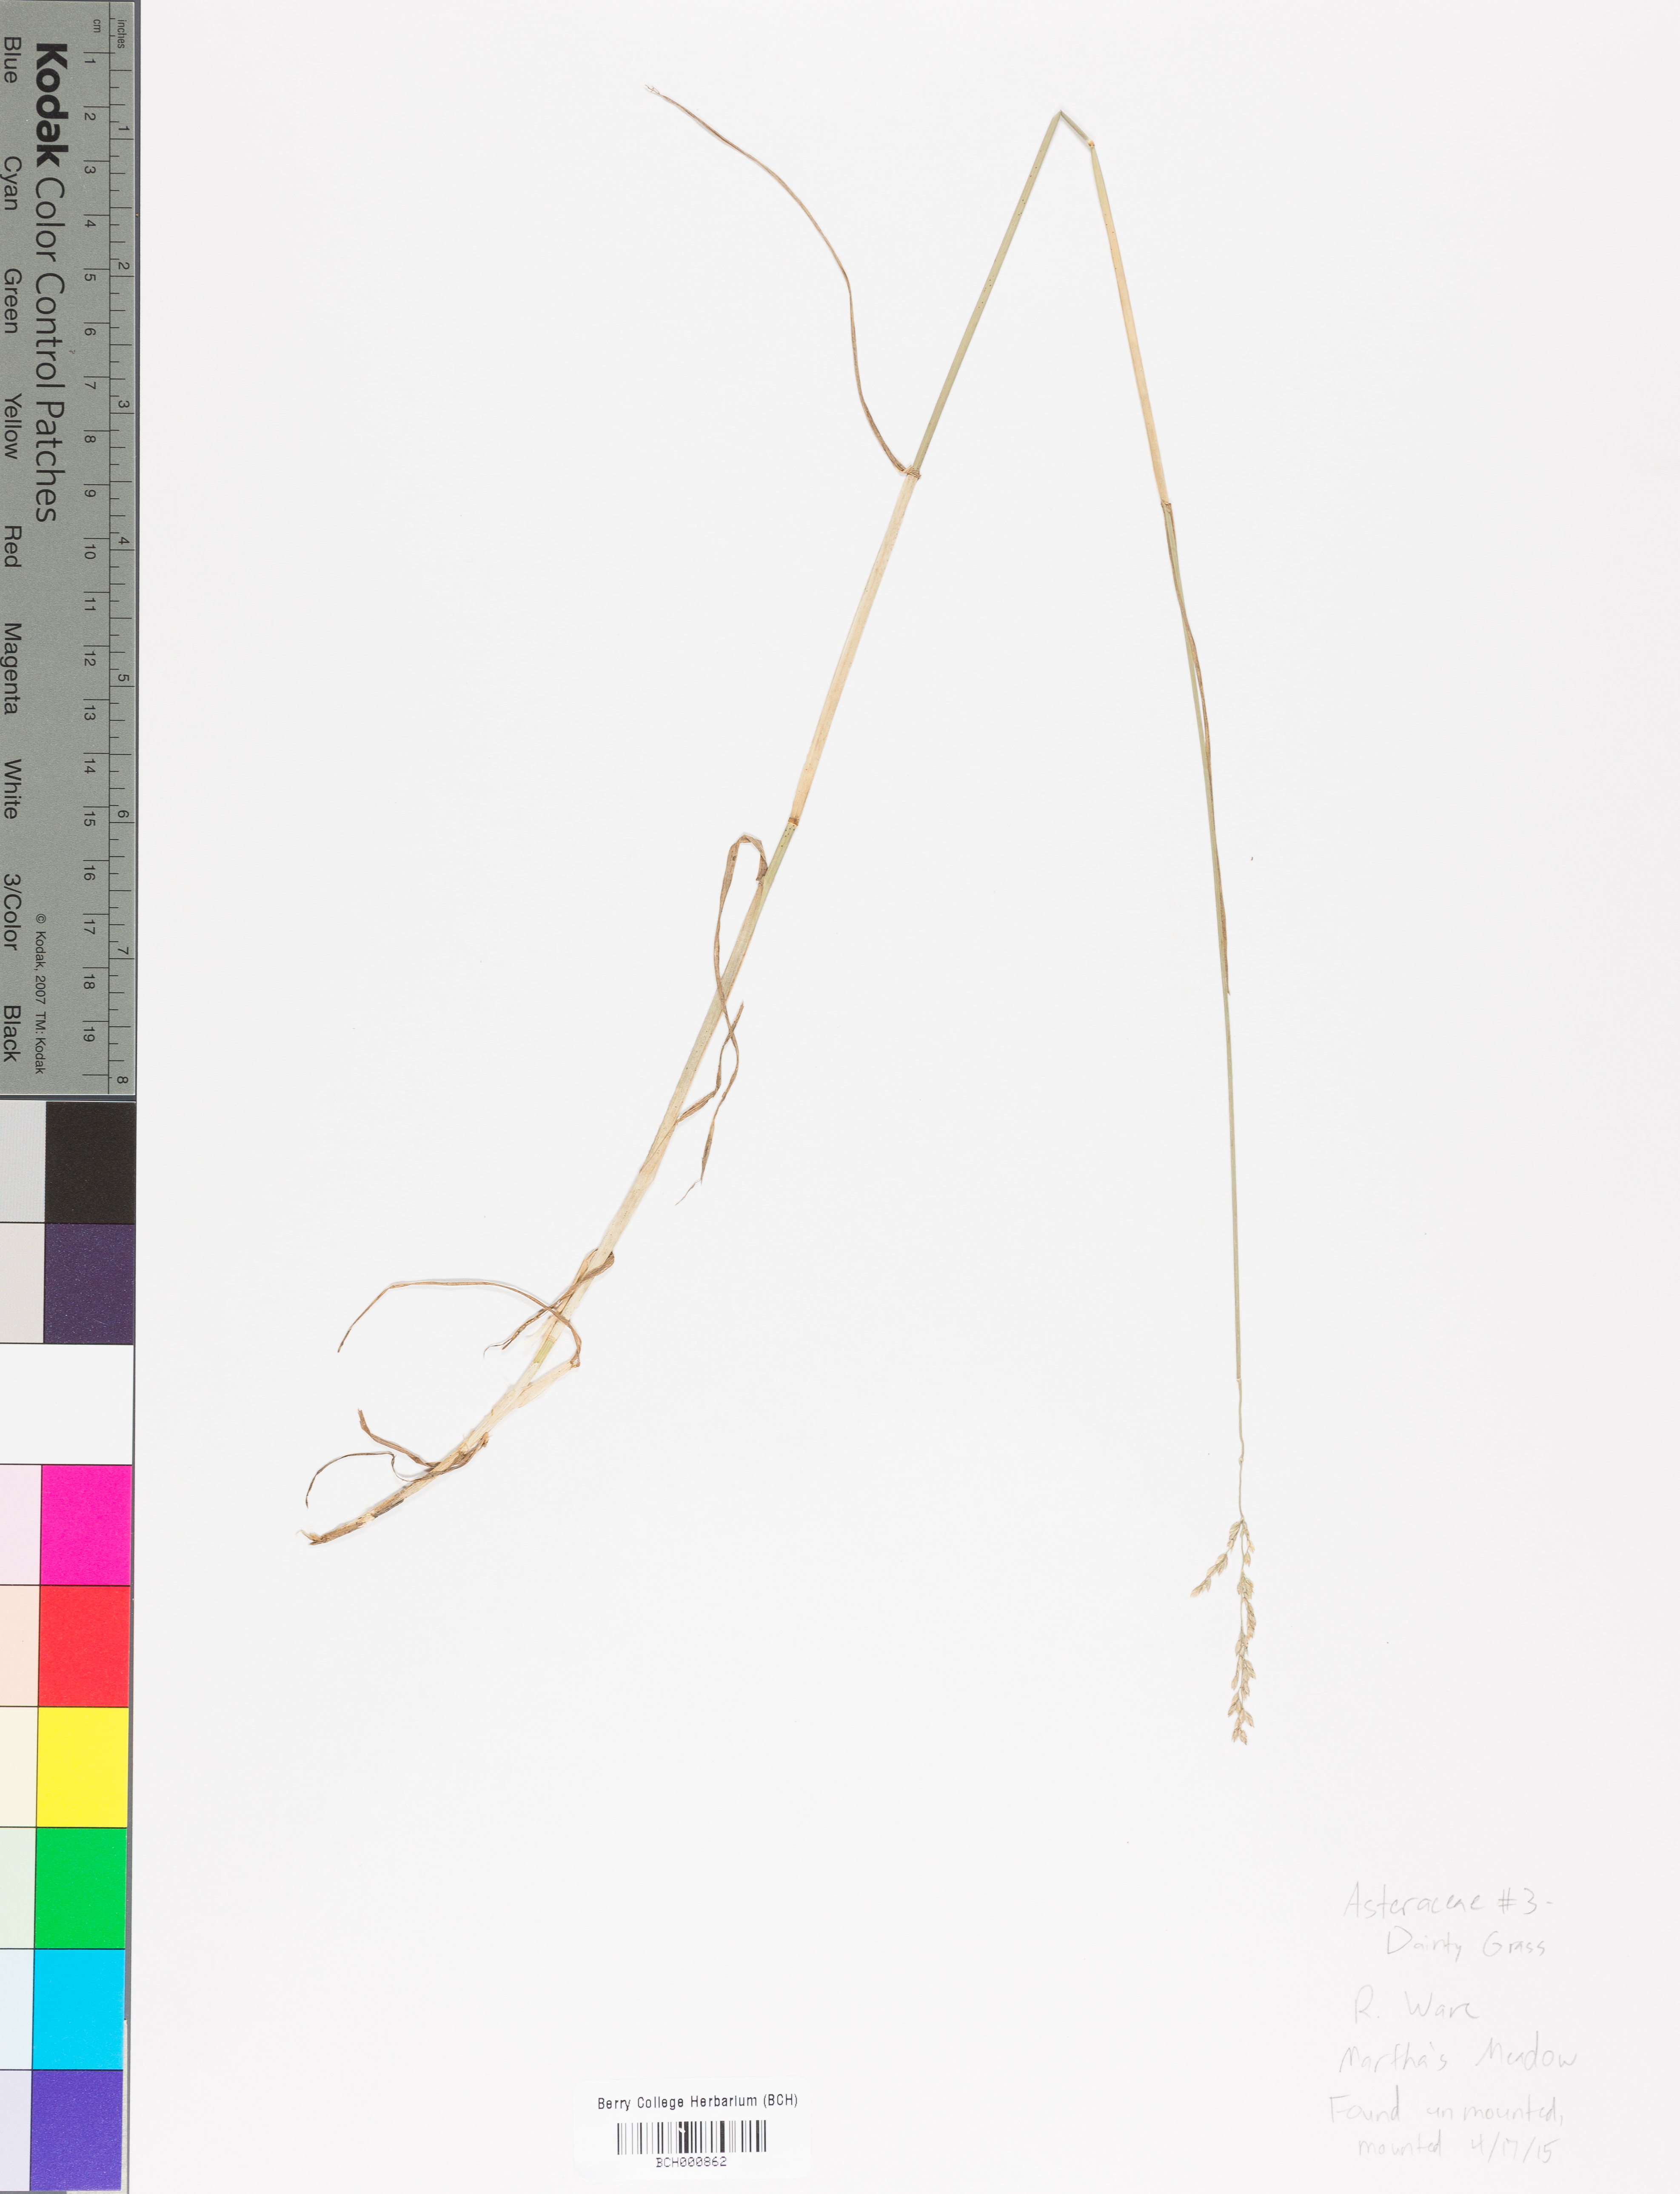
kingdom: Plantae
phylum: Tracheophyta
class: Magnoliopsida
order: Lamiales
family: Acanthaceae
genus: Adhatoda
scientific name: Adhatoda
